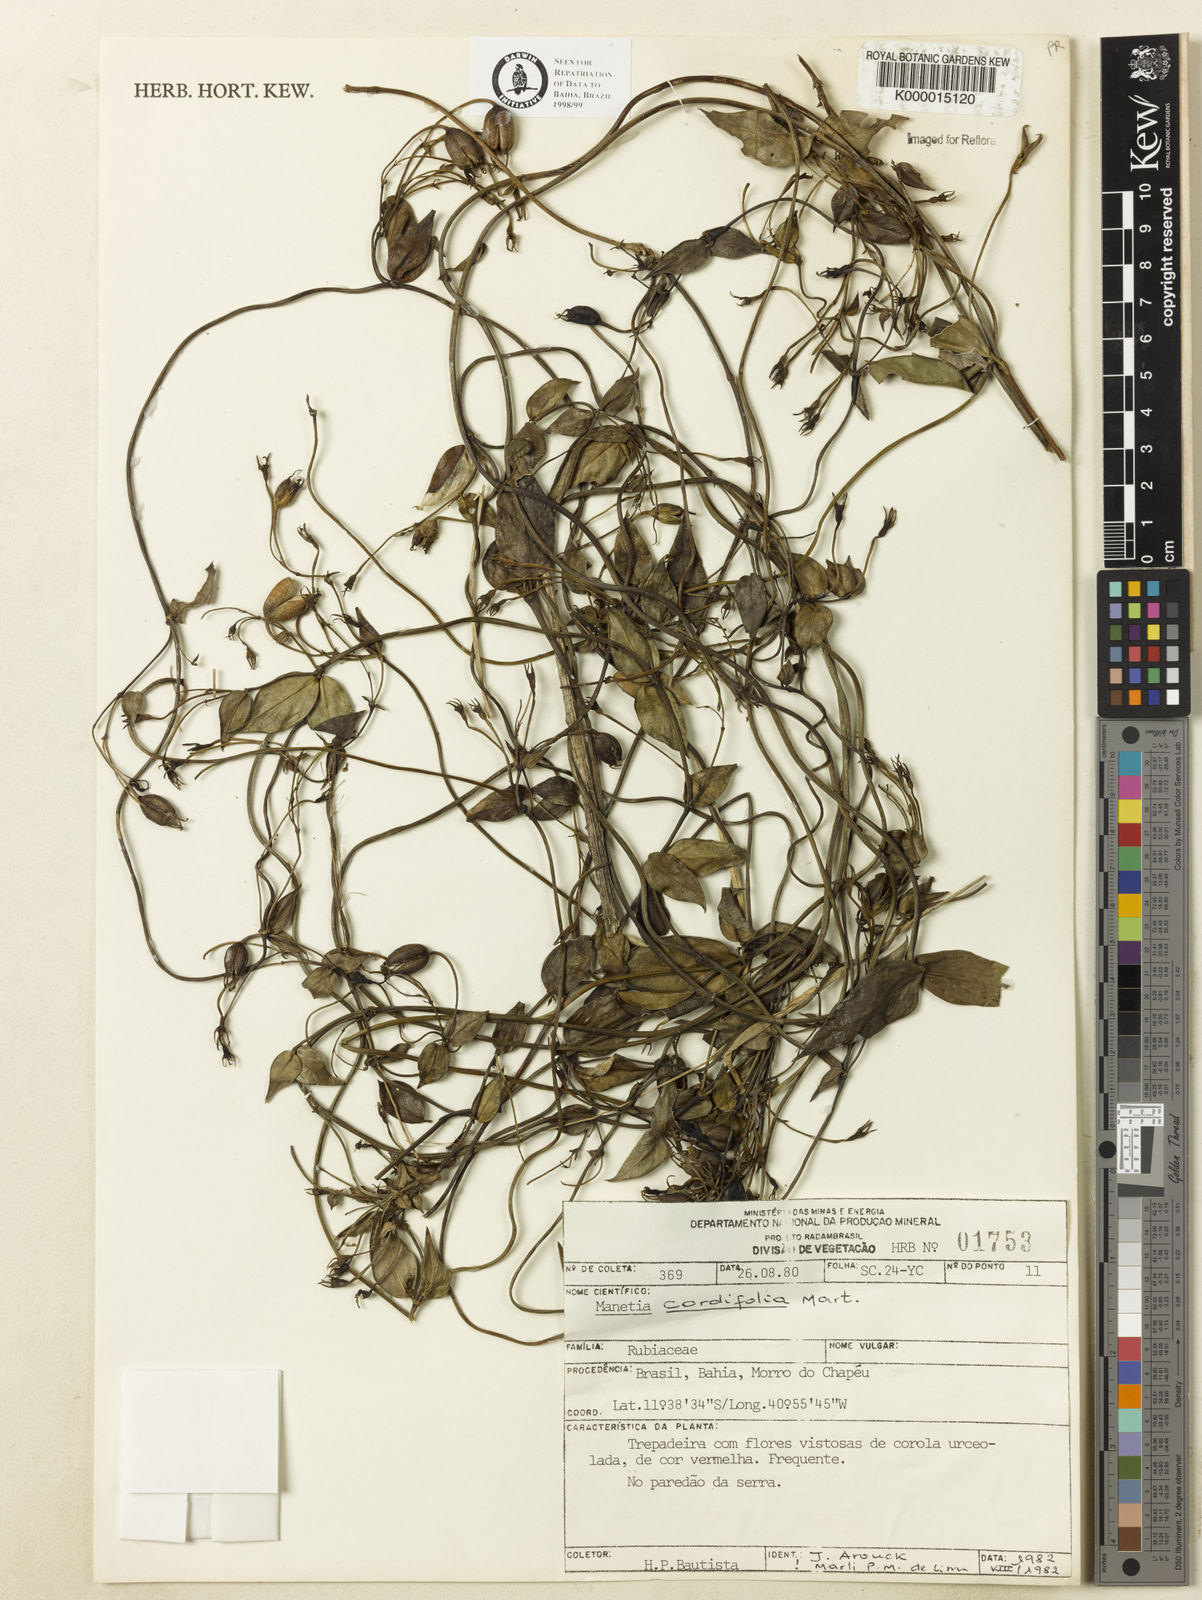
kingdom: Plantae
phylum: Tracheophyta
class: Magnoliopsida
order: Gentianales
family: Rubiaceae
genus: Manettia
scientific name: Manettia cordifolia
